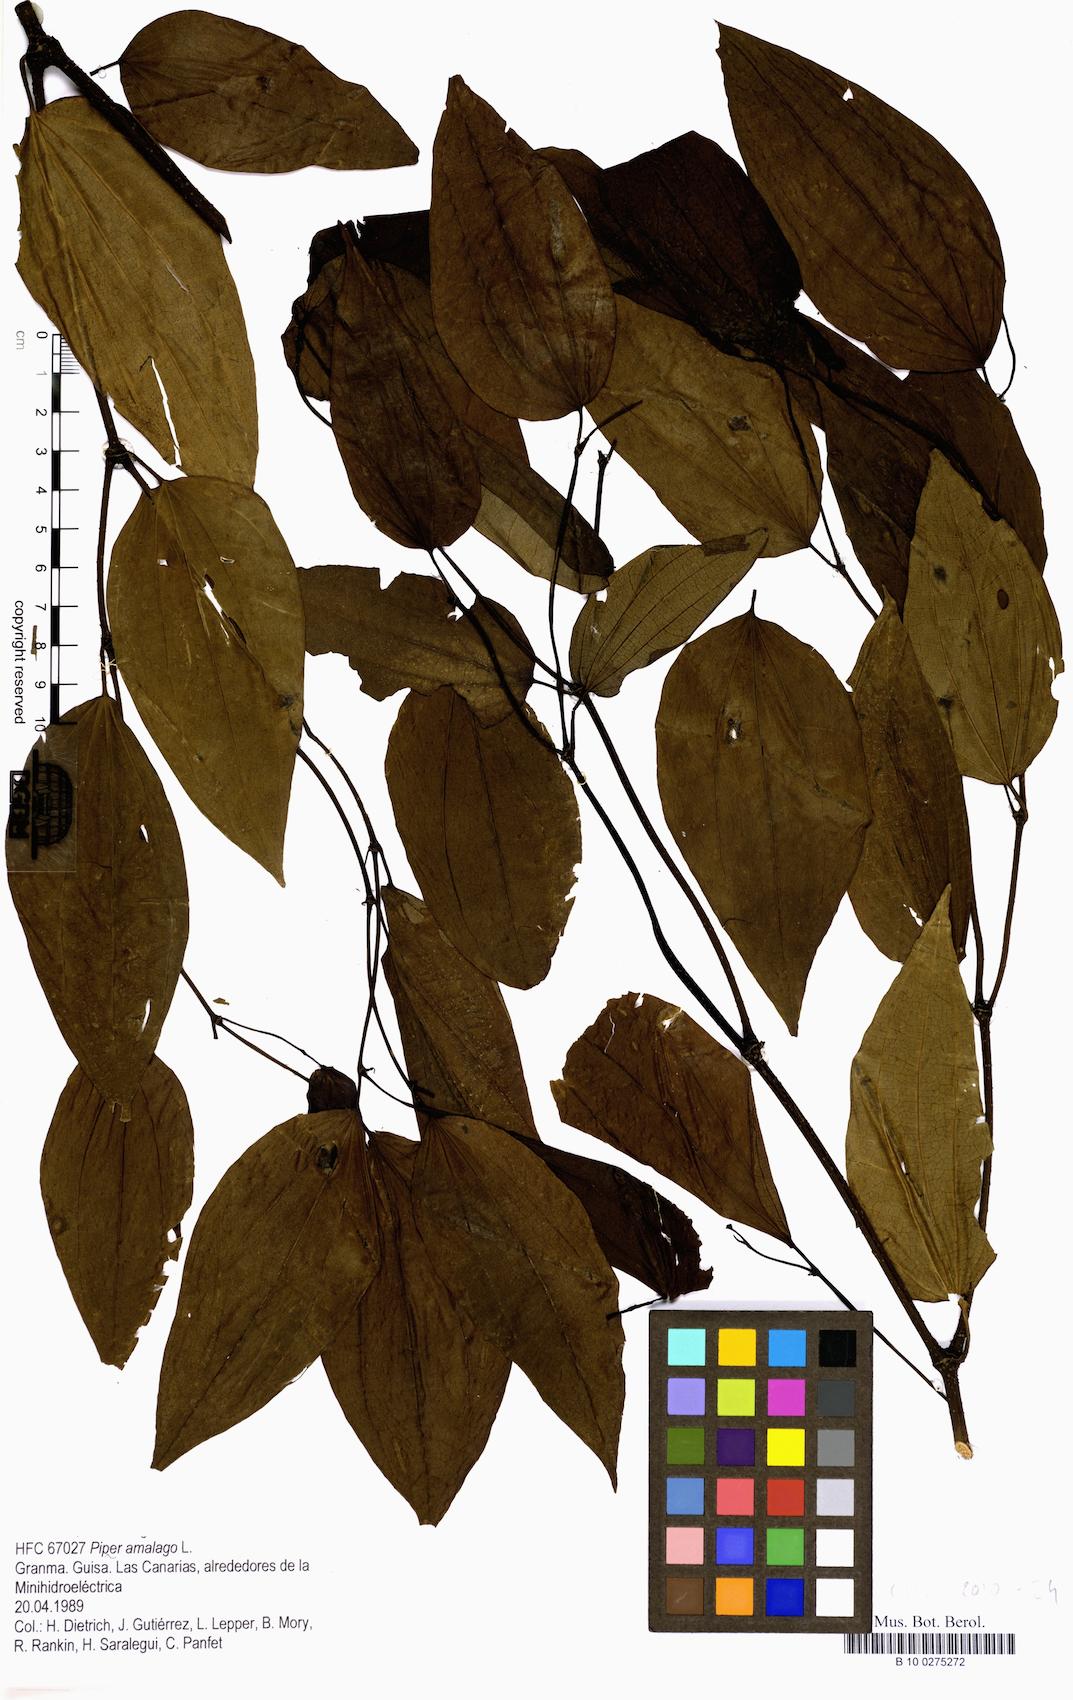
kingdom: Plantae
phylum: Tracheophyta
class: Magnoliopsida
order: Piperales
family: Piperaceae
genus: Piper
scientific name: Piper amalago
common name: Pepper-elder
